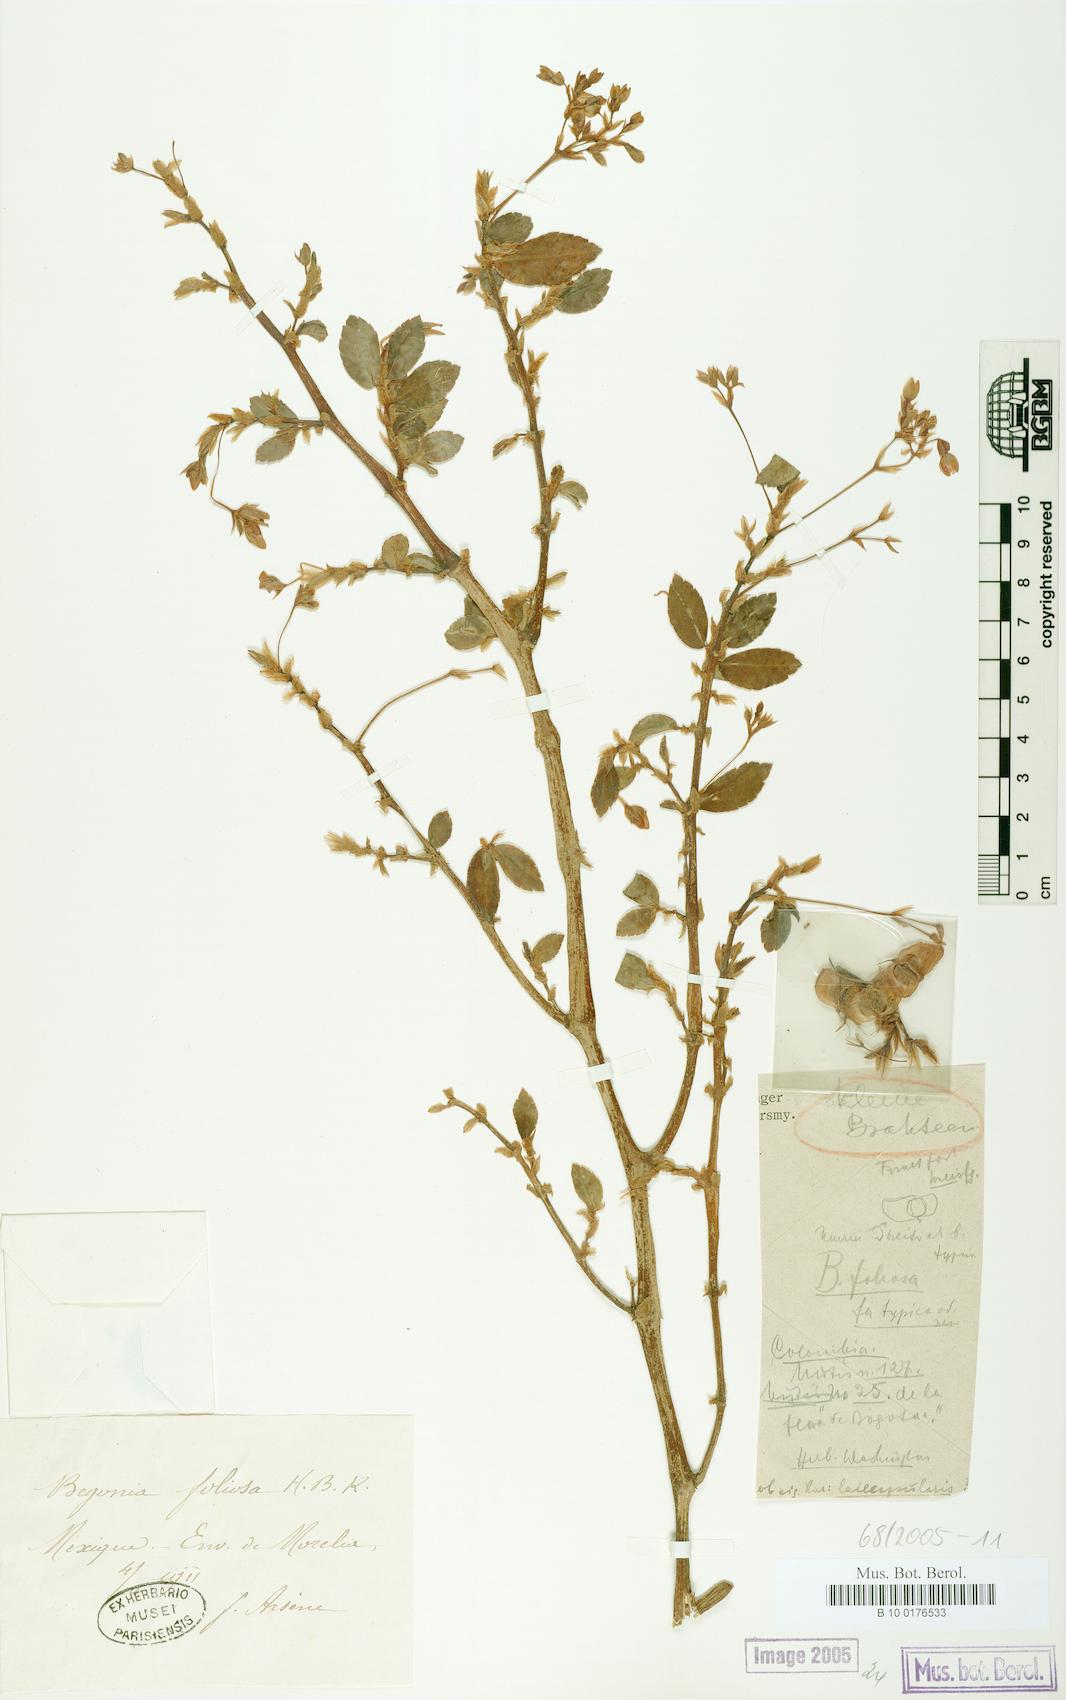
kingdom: Plantae
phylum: Tracheophyta
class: Magnoliopsida
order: Cucurbitales
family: Begoniaceae
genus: Begonia
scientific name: Begonia foliosa
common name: Fern begonia
